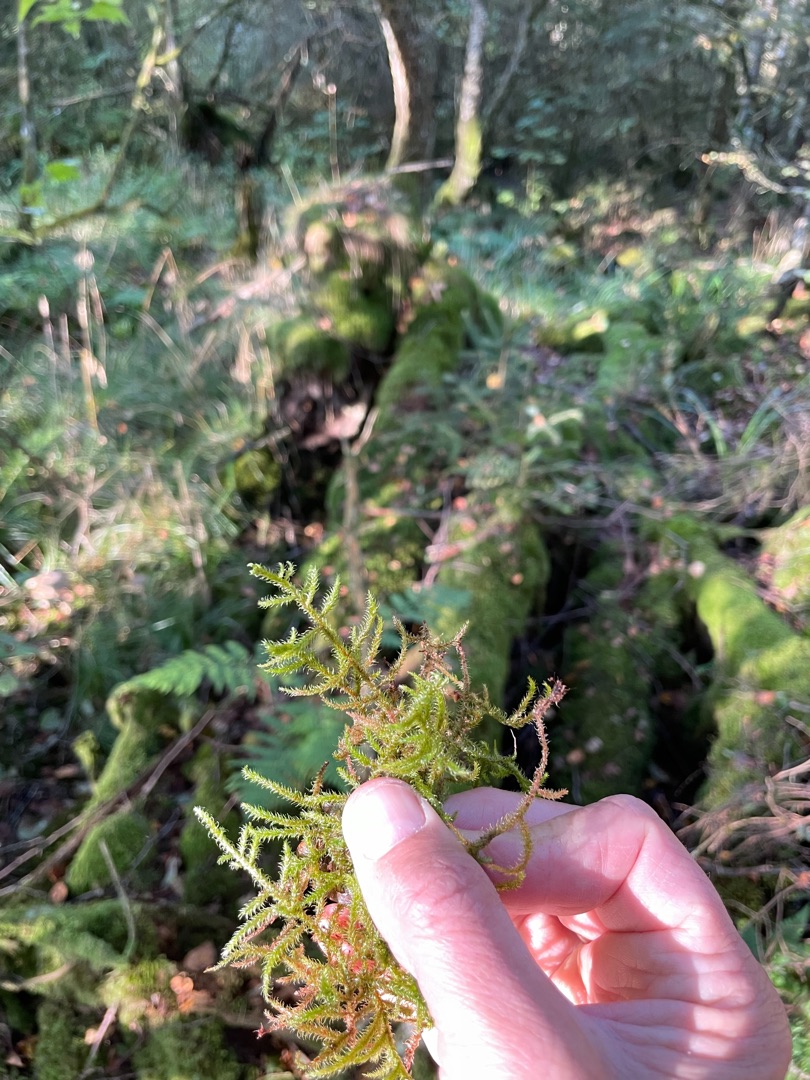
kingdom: Plantae
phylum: Bryophyta
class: Bryopsida
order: Hypnales
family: Hylocomiaceae
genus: Rhytidiadelphus
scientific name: Rhytidiadelphus loreus
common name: Ulvefod-kransemos
